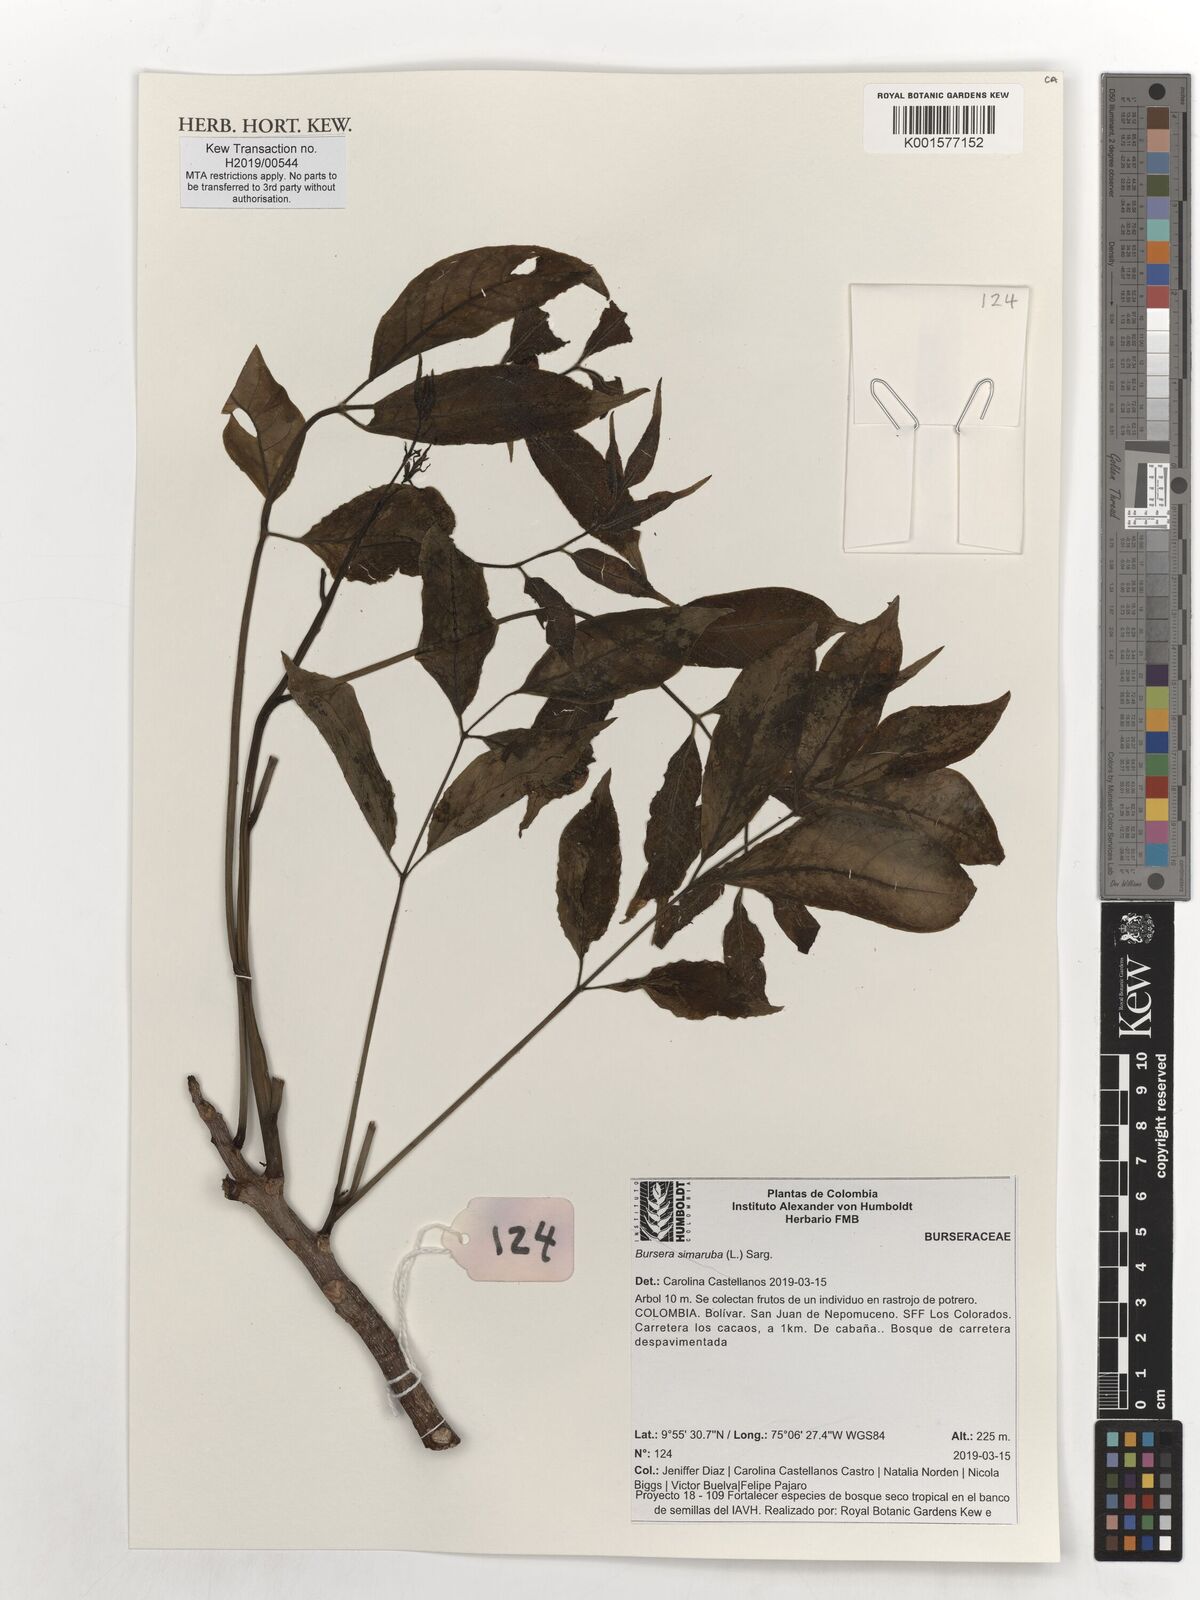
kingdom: Plantae
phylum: Tracheophyta
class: Magnoliopsida
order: Sapindales
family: Burseraceae
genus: Bursera
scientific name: Bursera simaruba
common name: Turpentine tree
